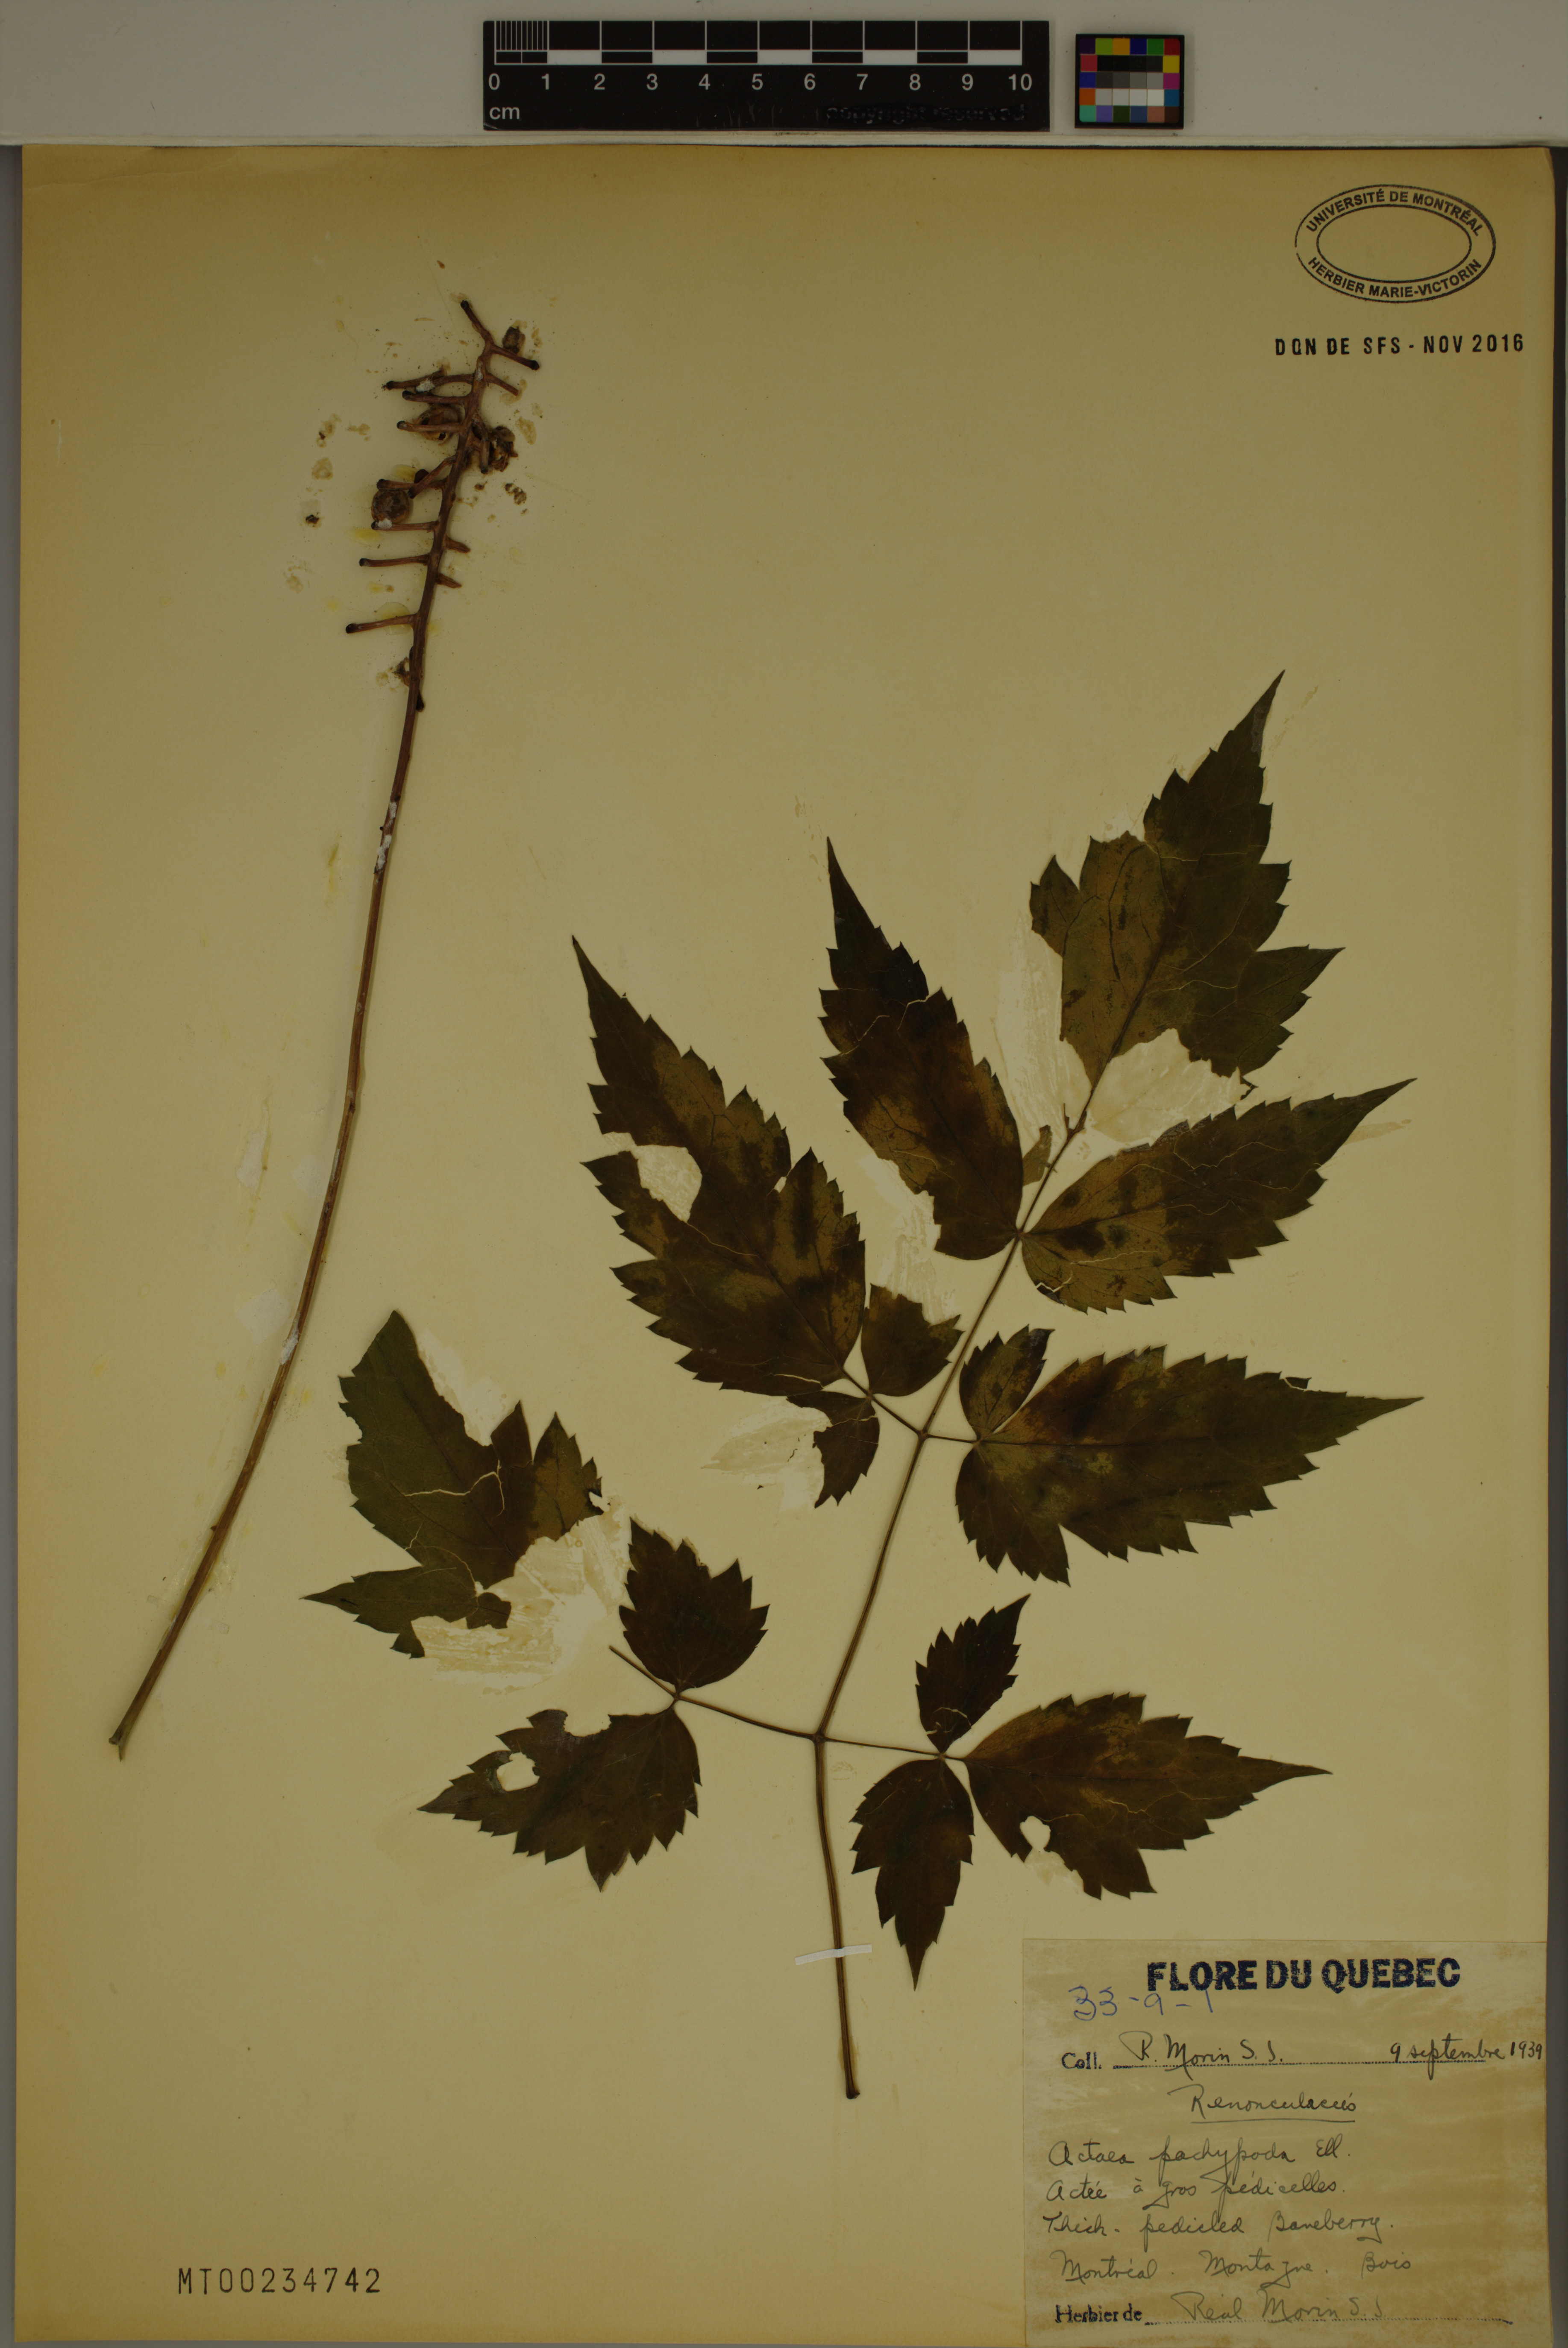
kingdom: Plantae
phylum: Tracheophyta
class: Magnoliopsida
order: Ranunculales
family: Ranunculaceae
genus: Actaea
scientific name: Actaea pachypoda
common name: Doll's-eyes
